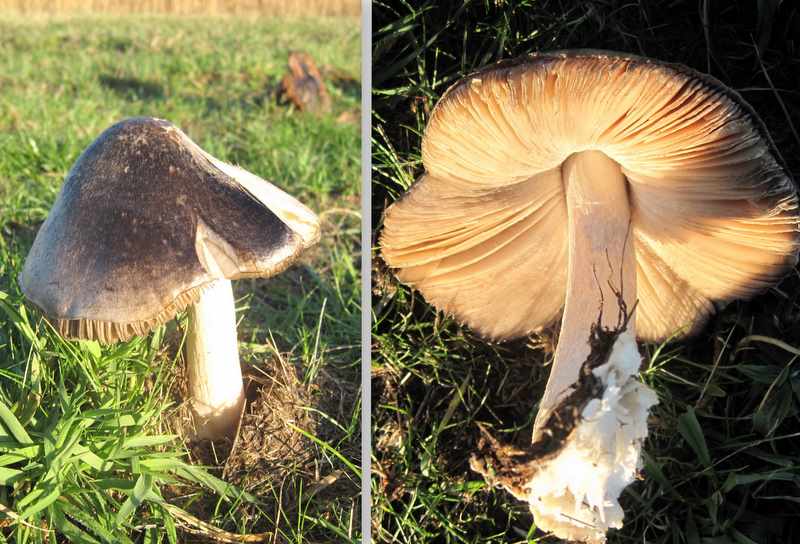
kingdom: Fungi
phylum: Basidiomycota
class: Agaricomycetes
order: Agaricales
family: Pluteaceae
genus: Volvopluteus
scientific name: Volvopluteus gloiocephalus
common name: høj posesvamp
